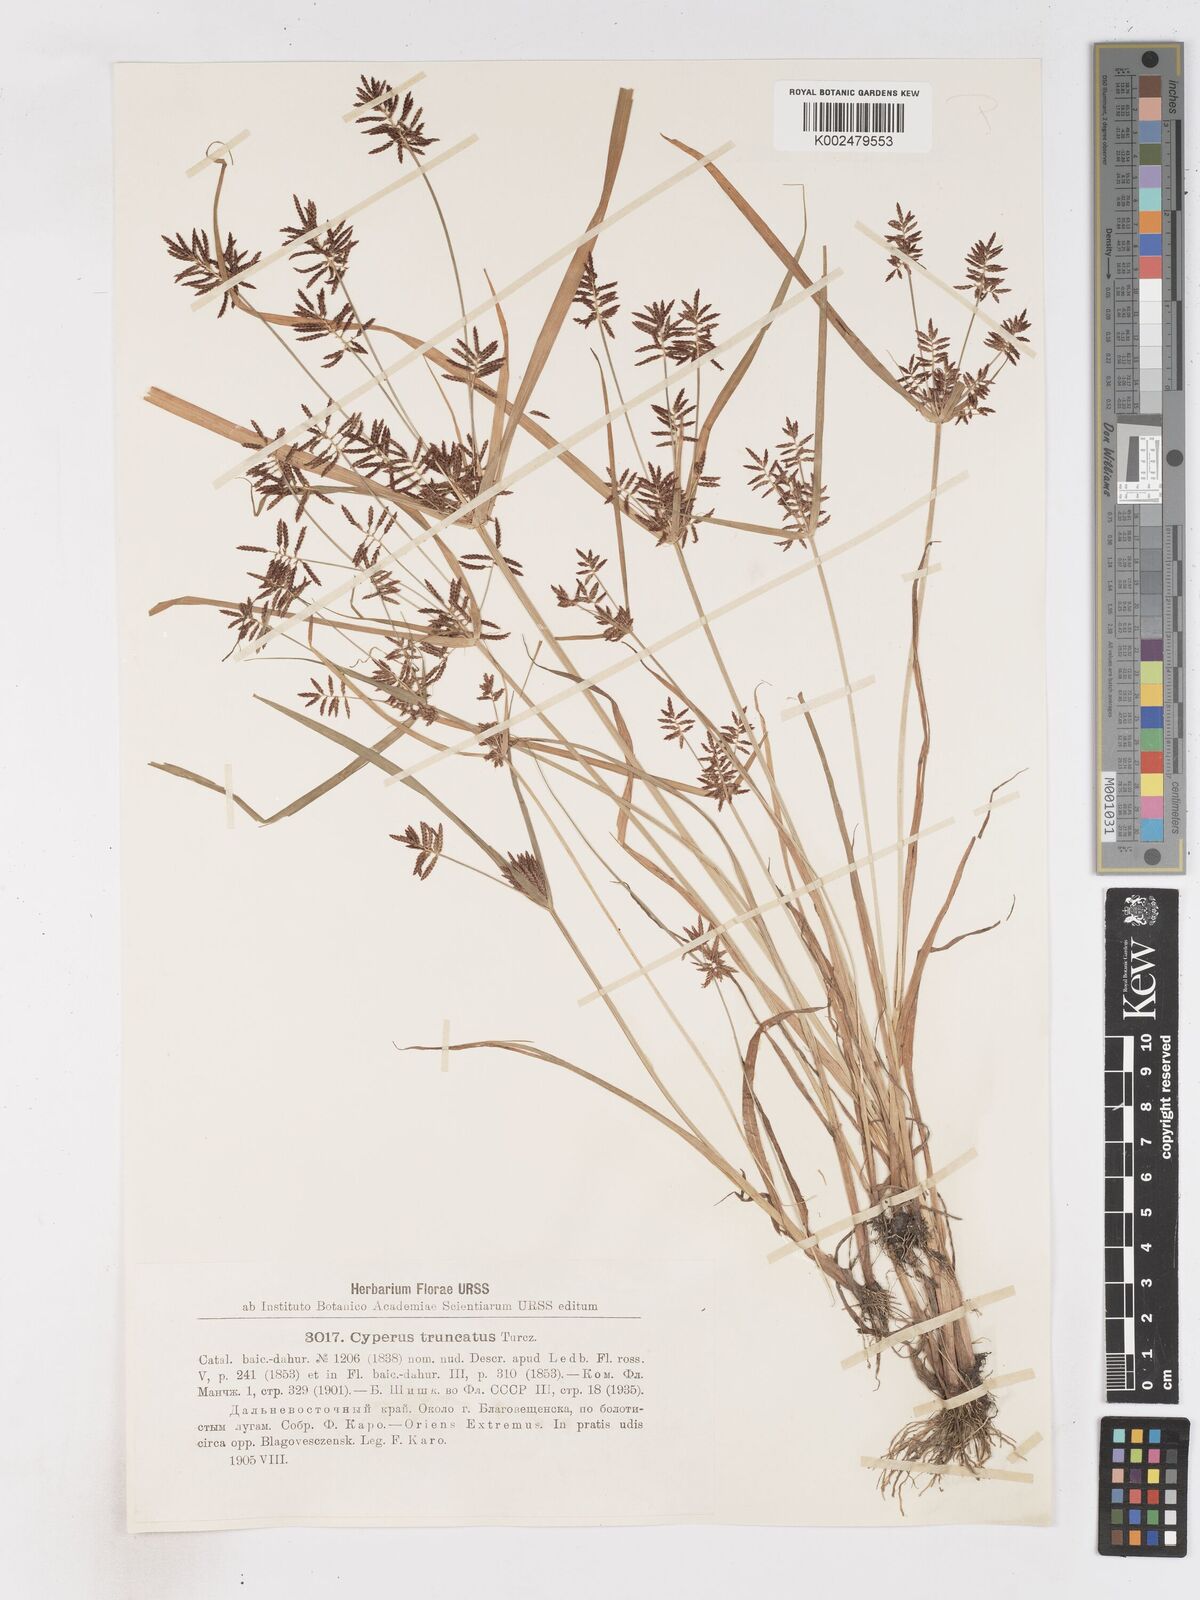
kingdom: Plantae
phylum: Tracheophyta
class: Liliopsida
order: Poales
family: Cyperaceae
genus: Cyperus
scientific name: Cyperus orthostachyus
